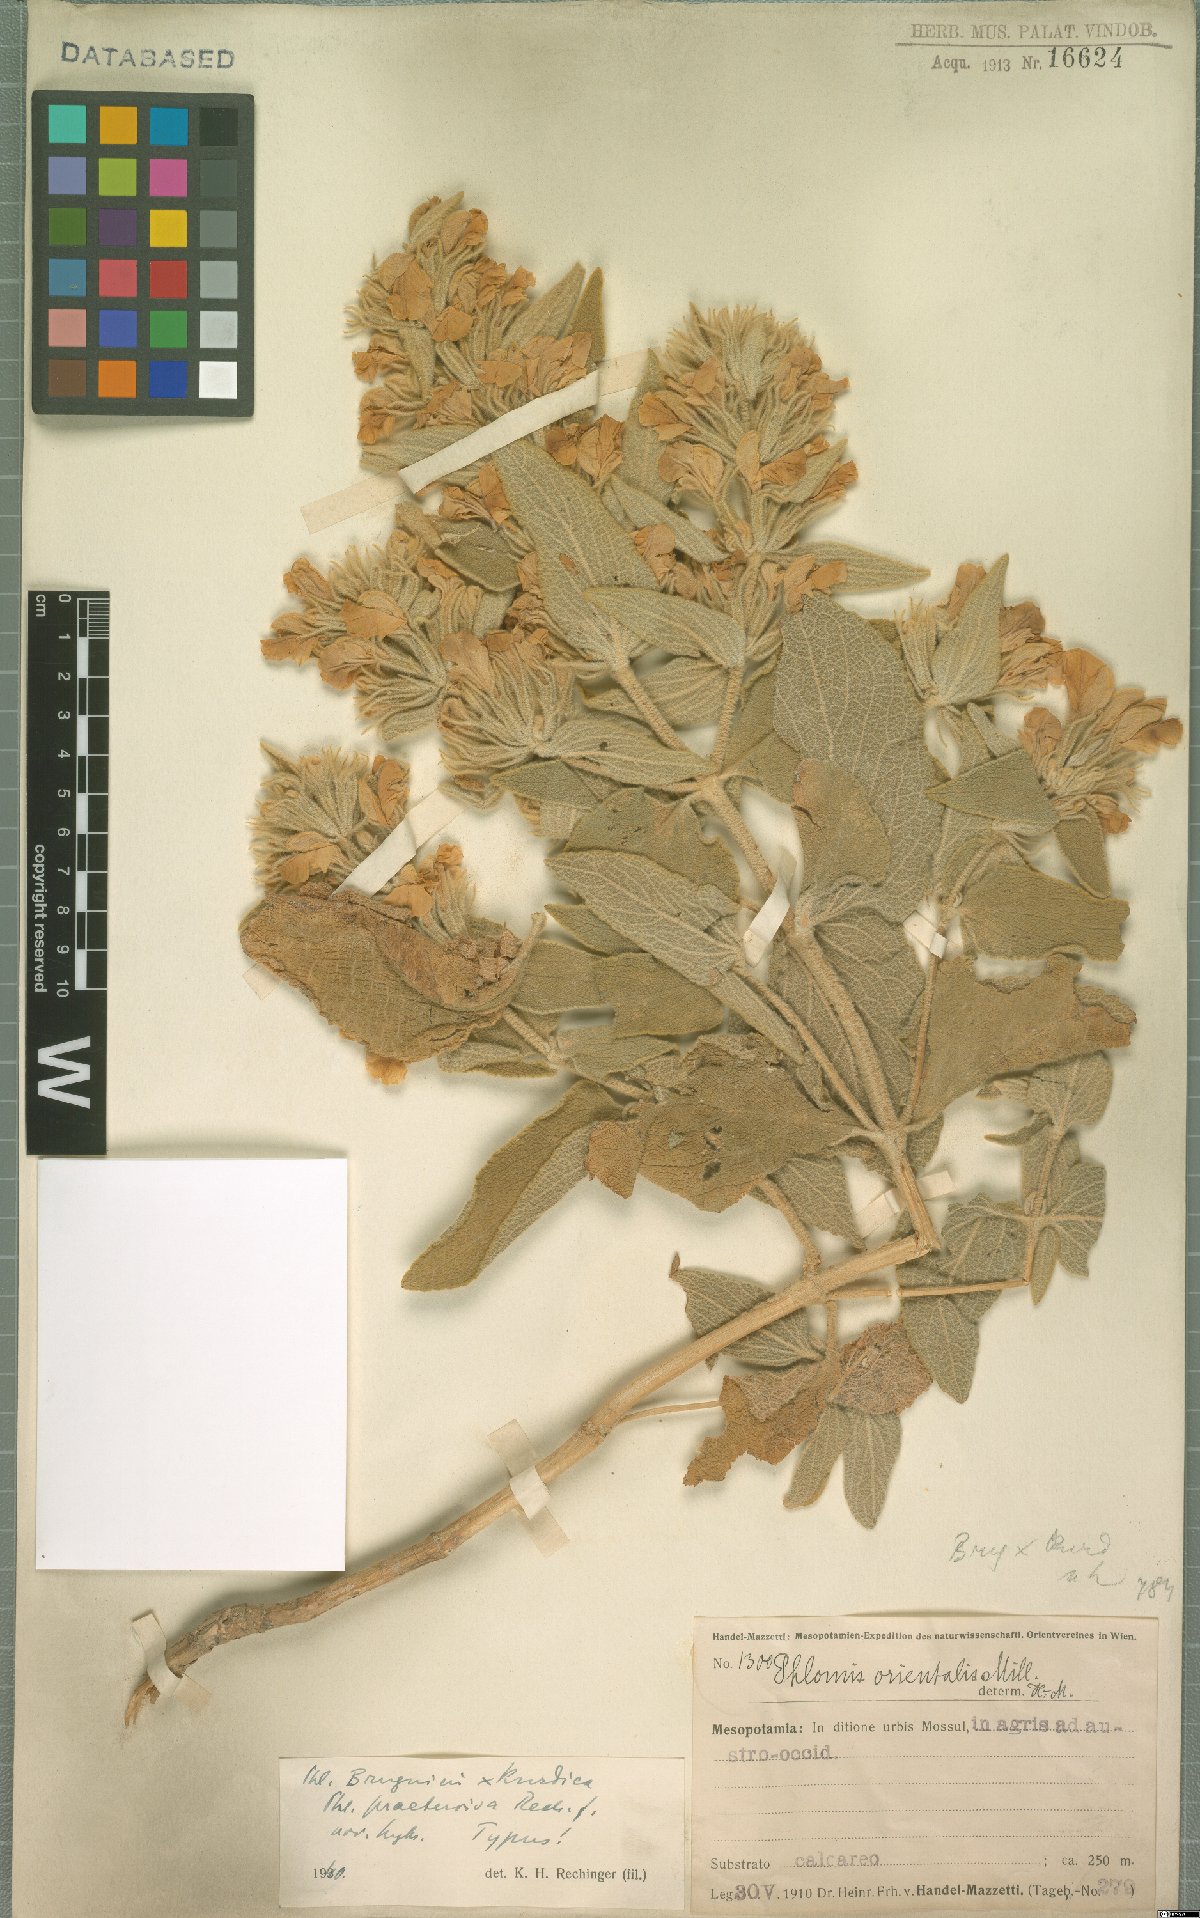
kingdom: Plantae
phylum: Tracheophyta
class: Magnoliopsida
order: Lamiales
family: Lamiaceae
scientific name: Lamiaceae
